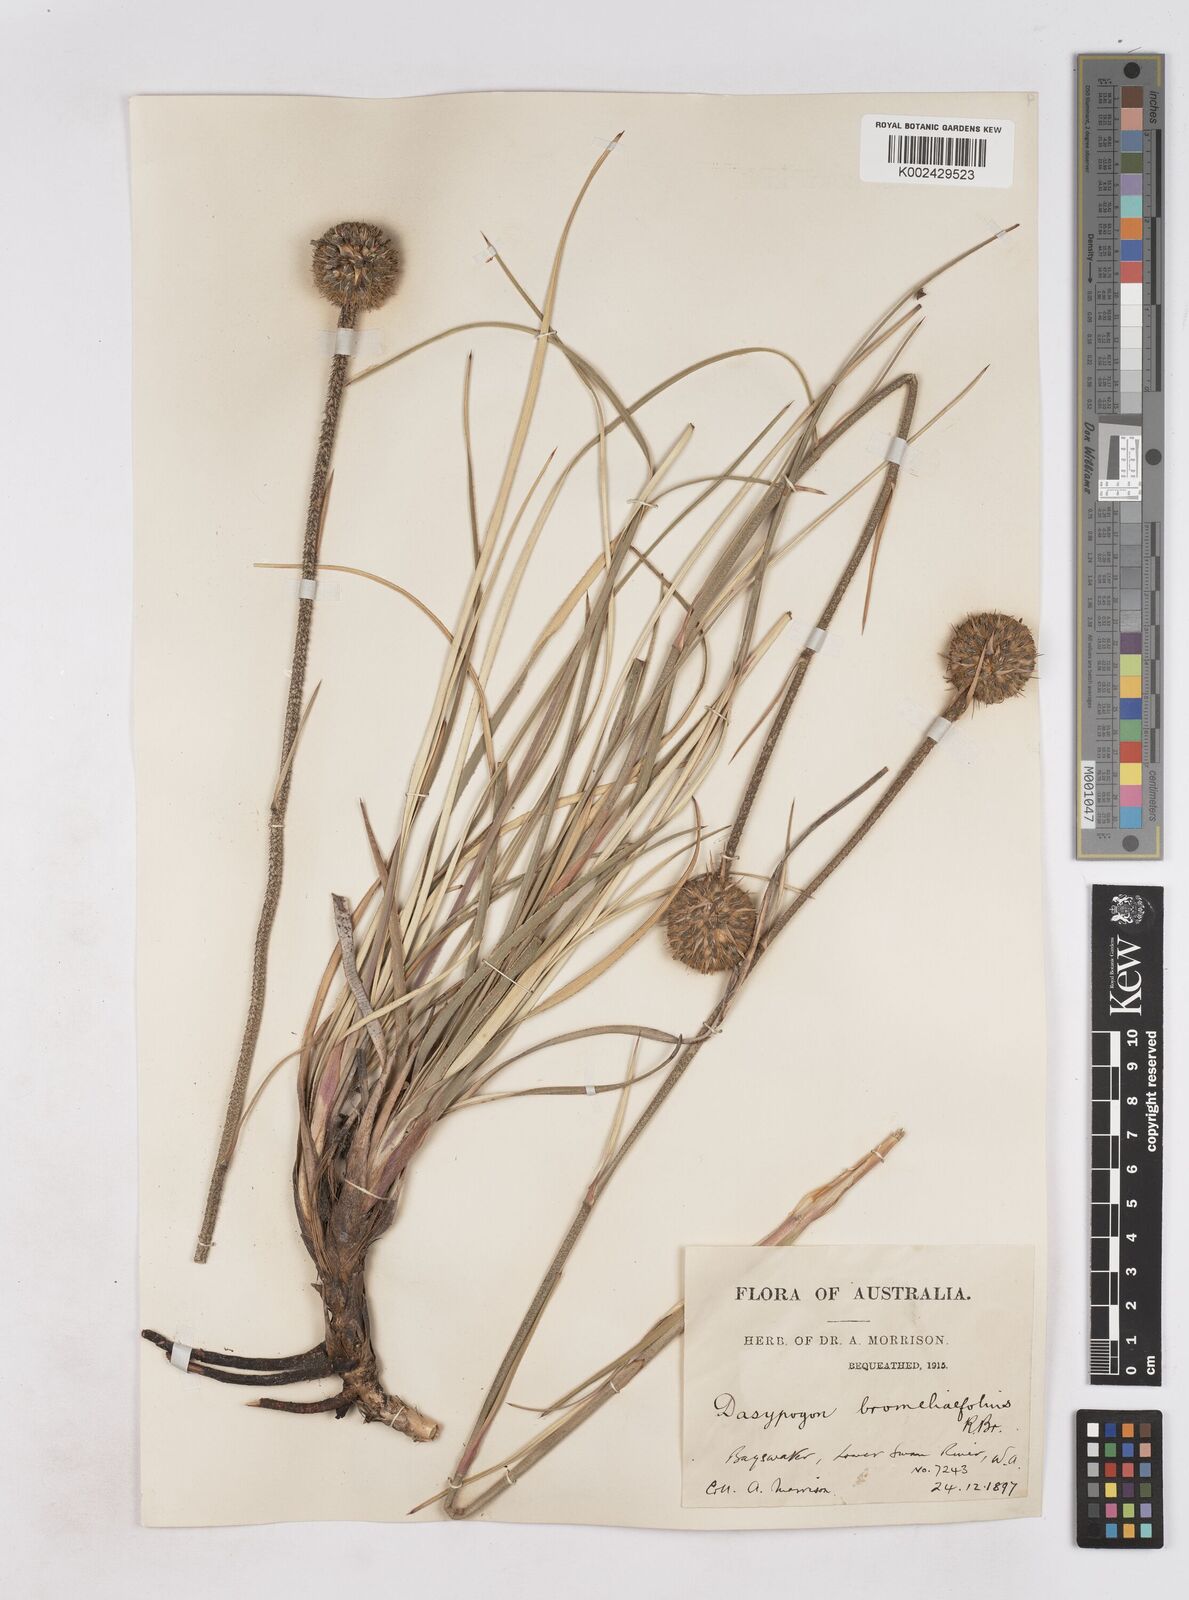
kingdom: Plantae
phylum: Tracheophyta
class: Liliopsida
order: Arecales
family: Dasypogonaceae
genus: Dasypogon
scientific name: Dasypogon bromeliifolius
